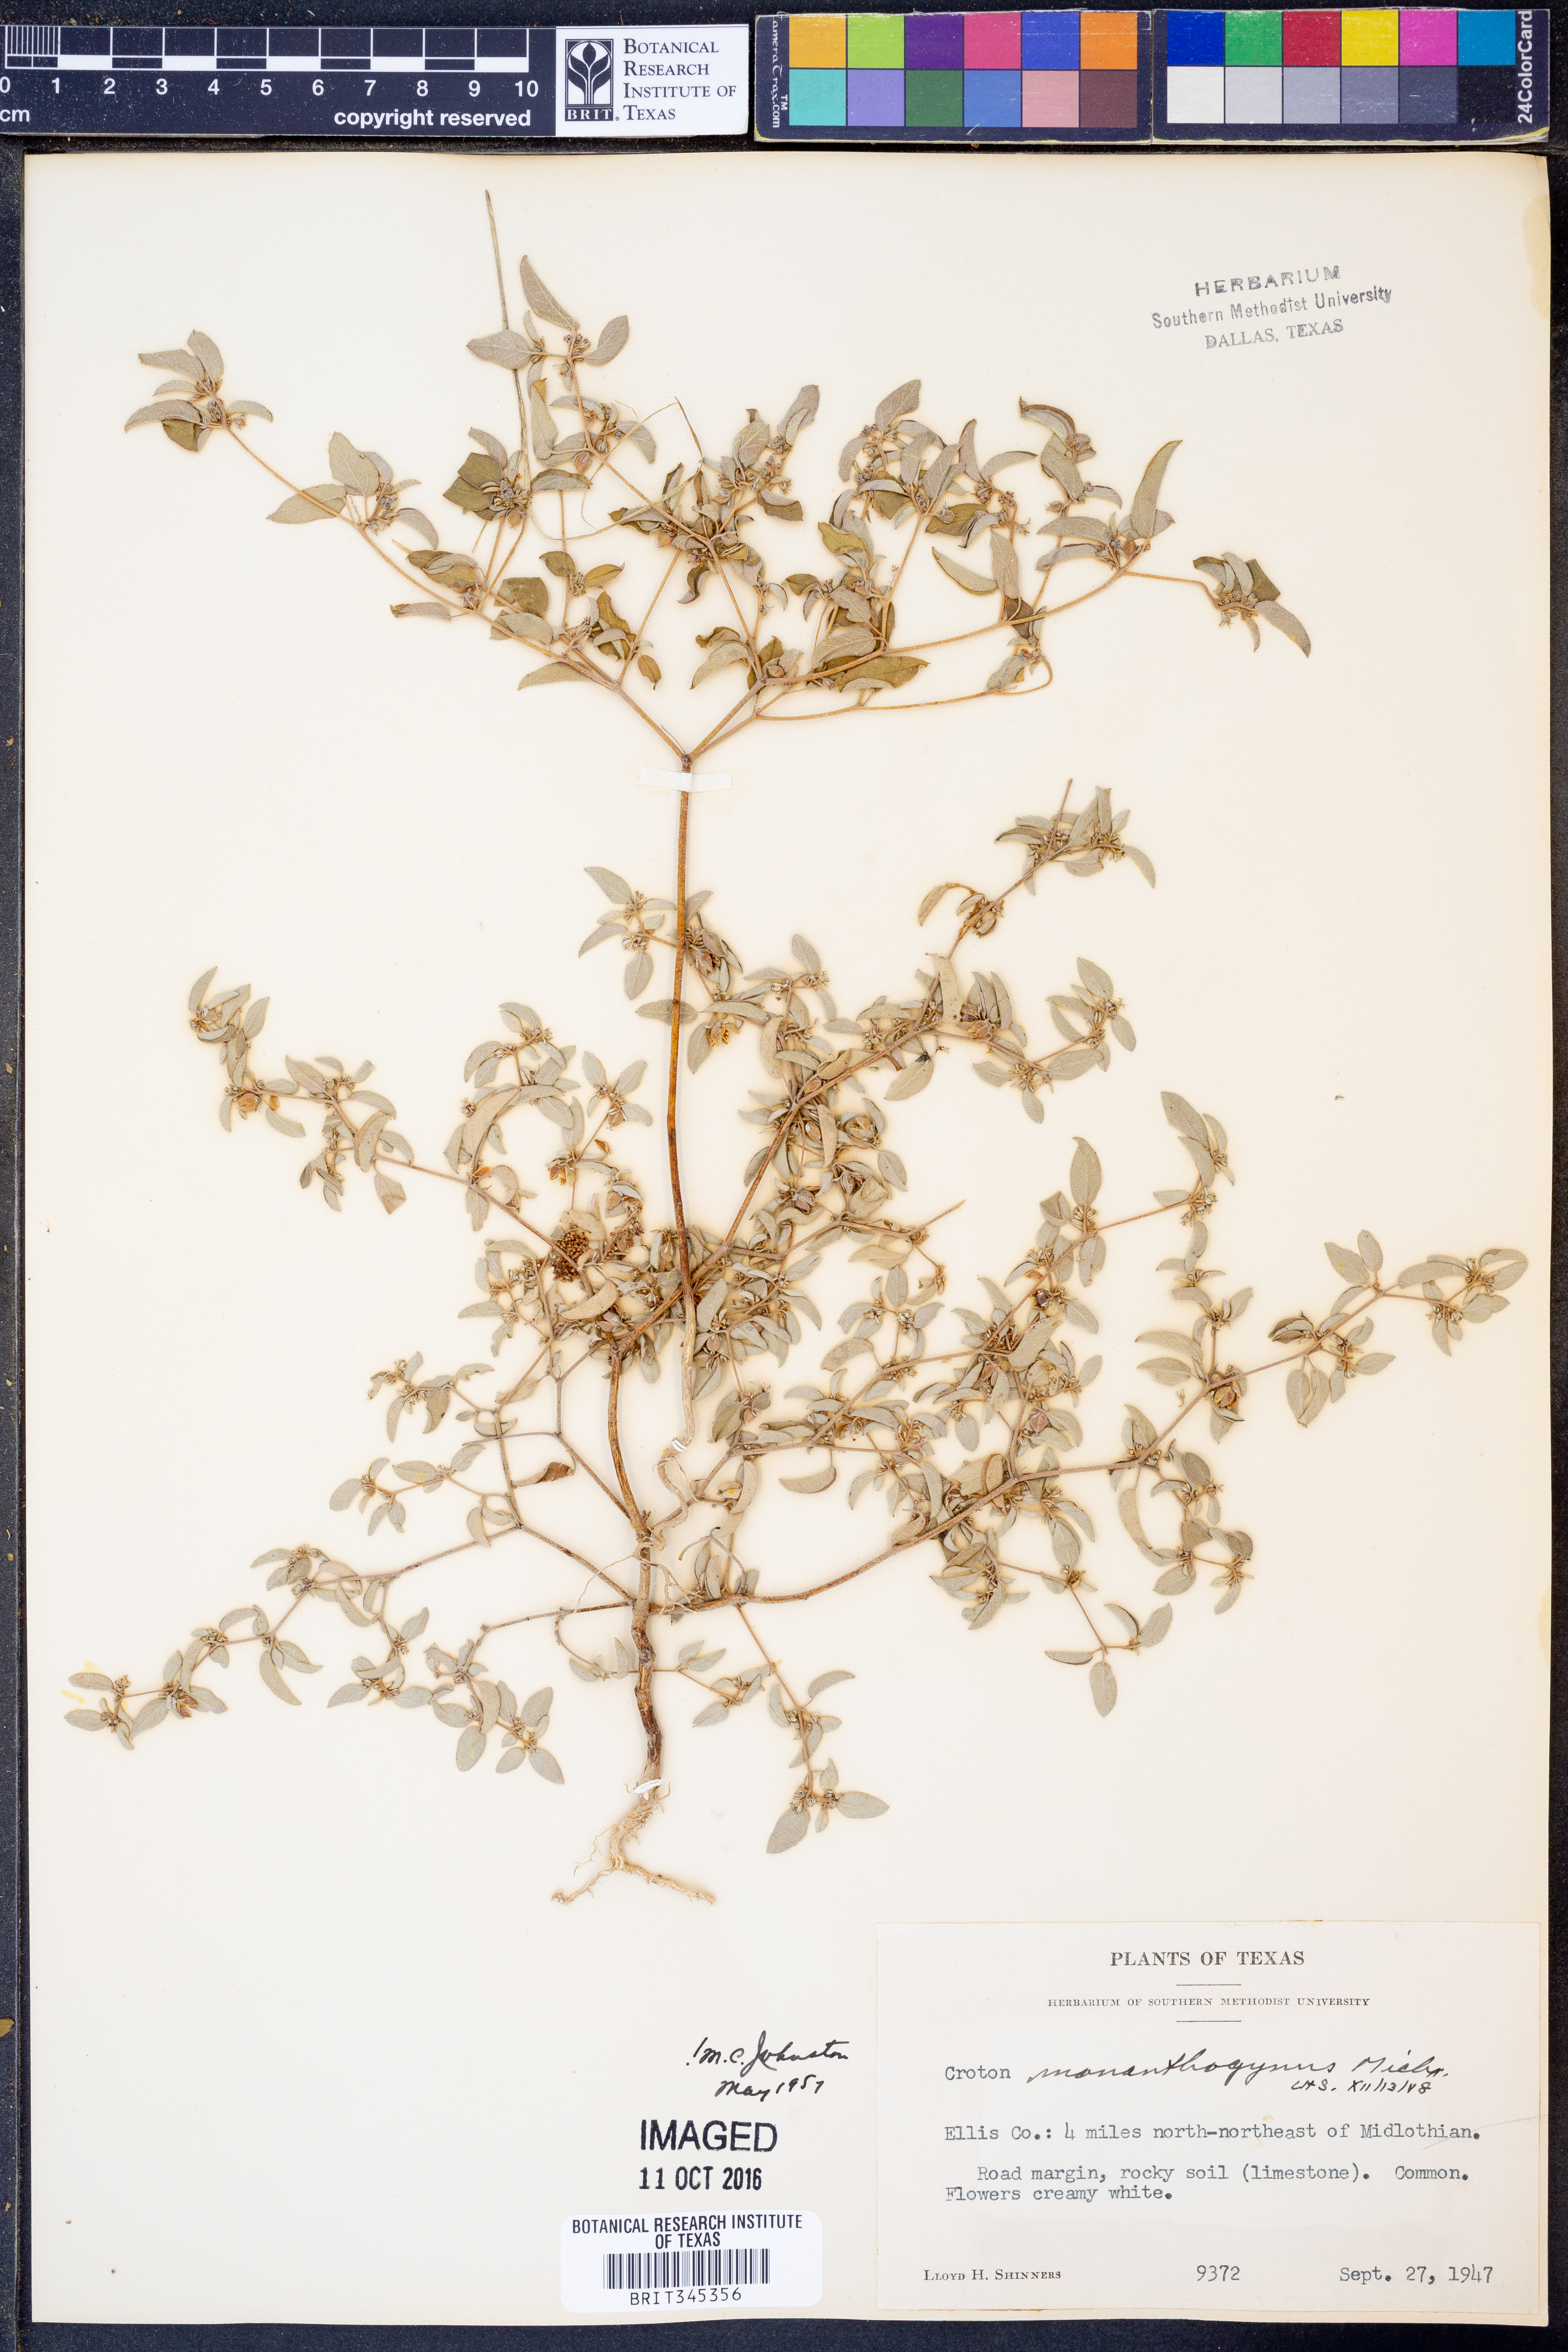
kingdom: Plantae
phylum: Tracheophyta
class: Magnoliopsida
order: Malpighiales
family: Euphorbiaceae
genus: Croton
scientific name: Croton monanthogynus
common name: One-seed croton
